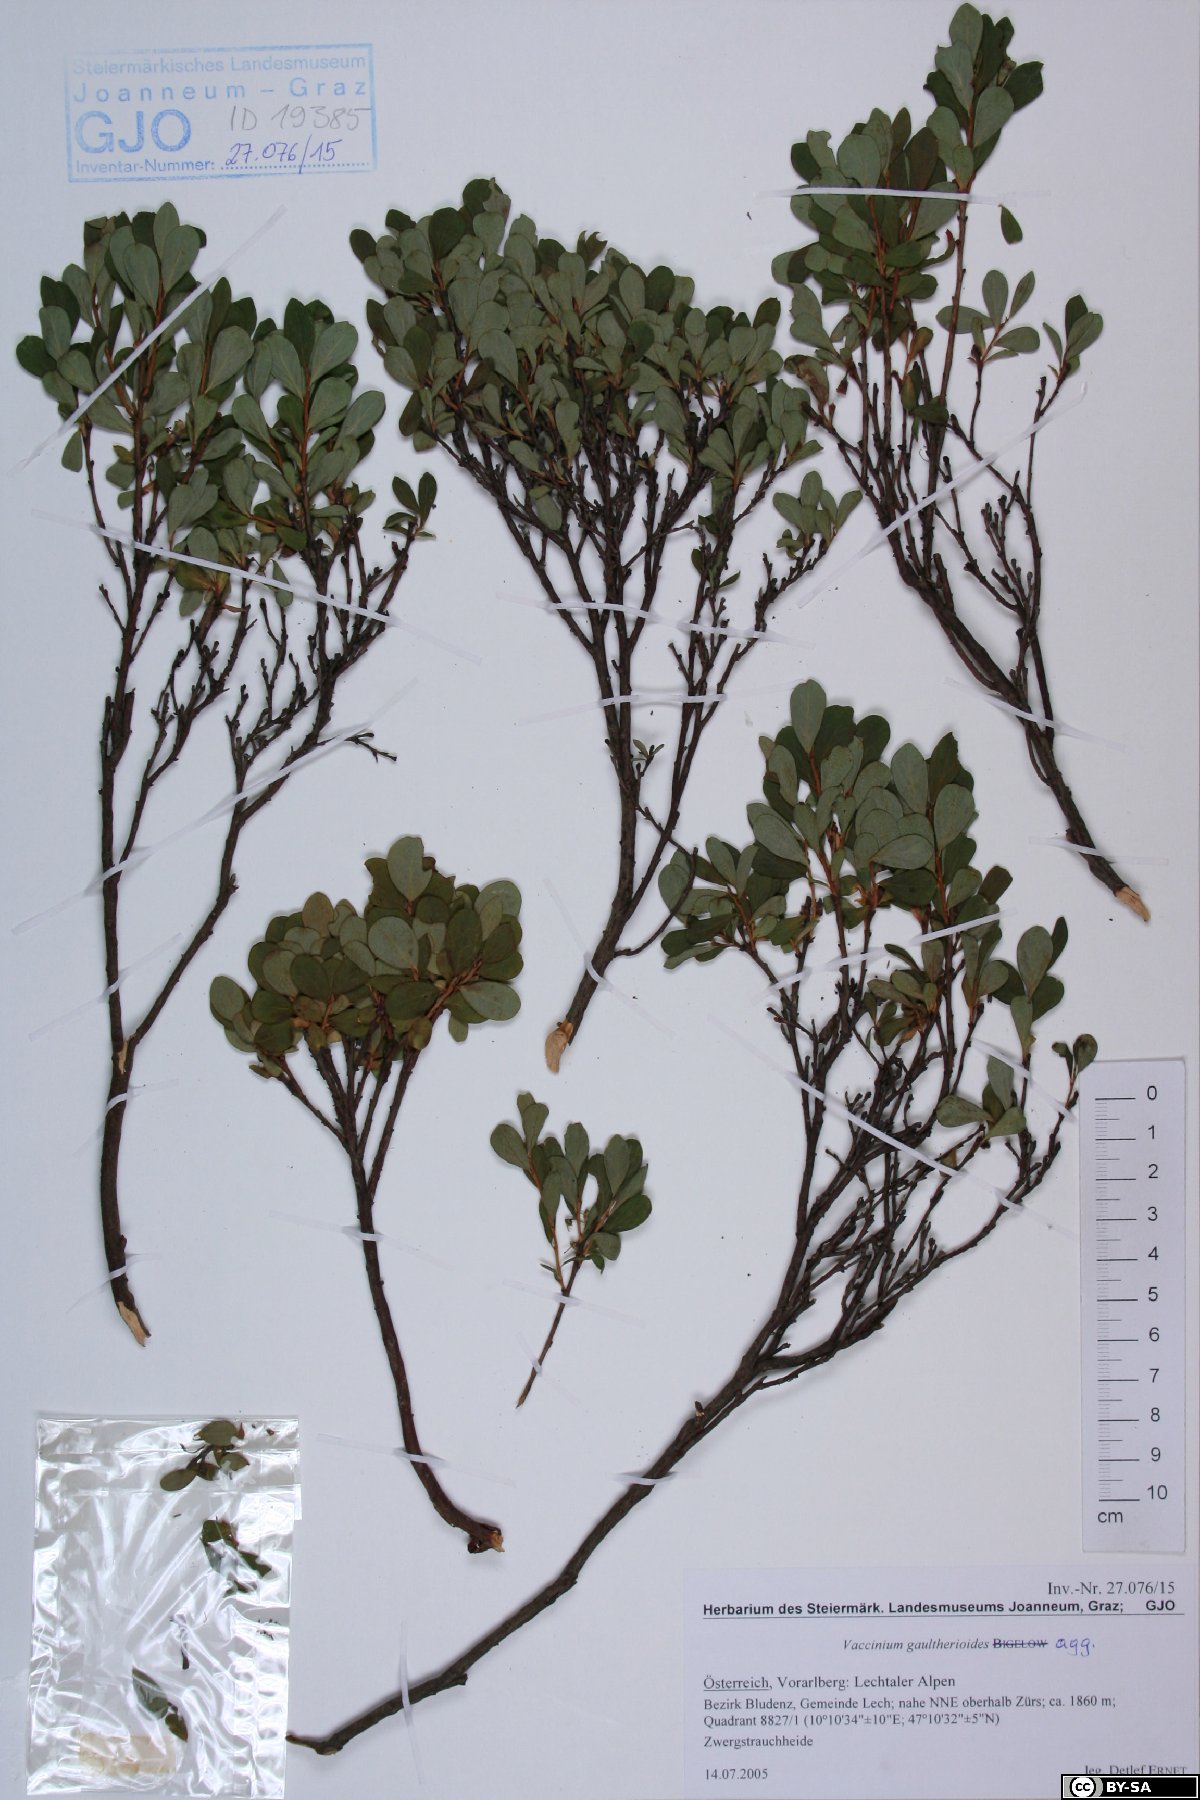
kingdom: Plantae
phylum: Tracheophyta
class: Magnoliopsida
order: Ericales
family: Ericaceae
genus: Vaccinium
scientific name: Vaccinium gaultherioides
